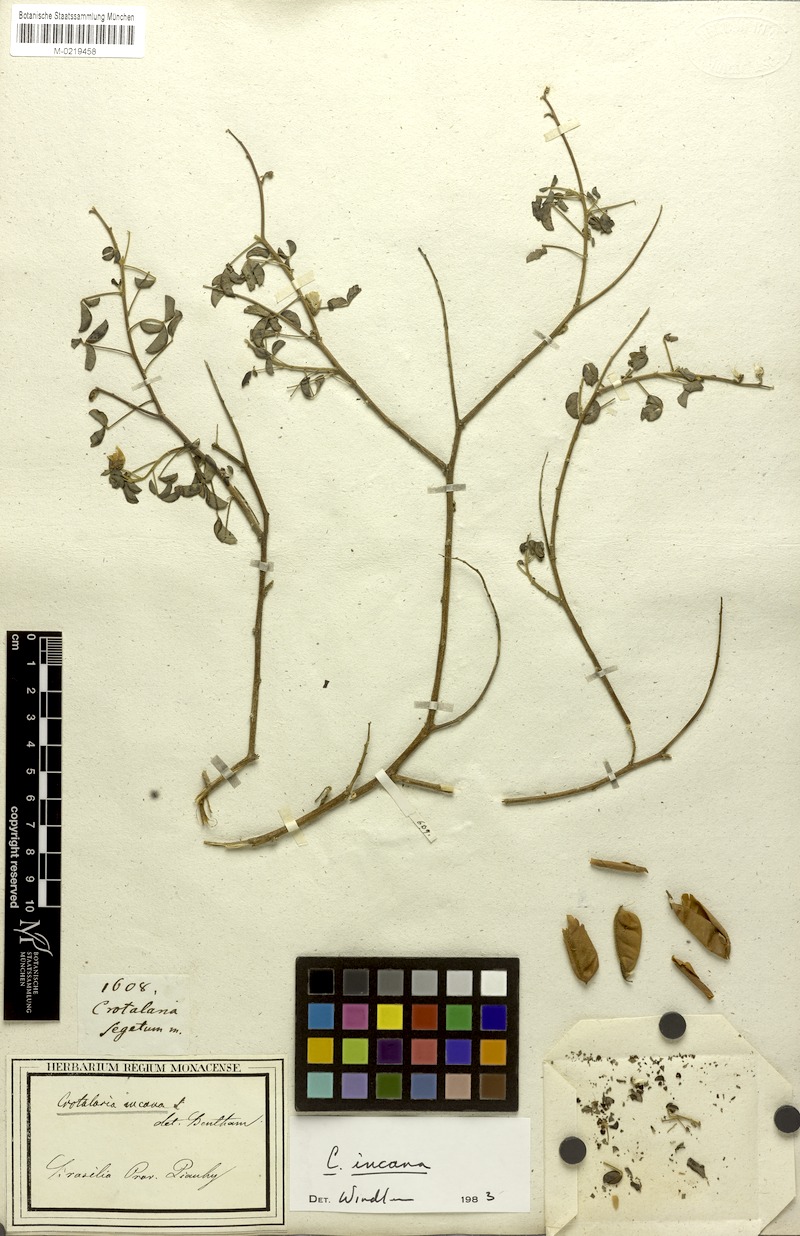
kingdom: Plantae
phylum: Tracheophyta
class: Magnoliopsida
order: Fabales
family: Fabaceae
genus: Crotalaria
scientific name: Crotalaria incana
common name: Shakeshake
